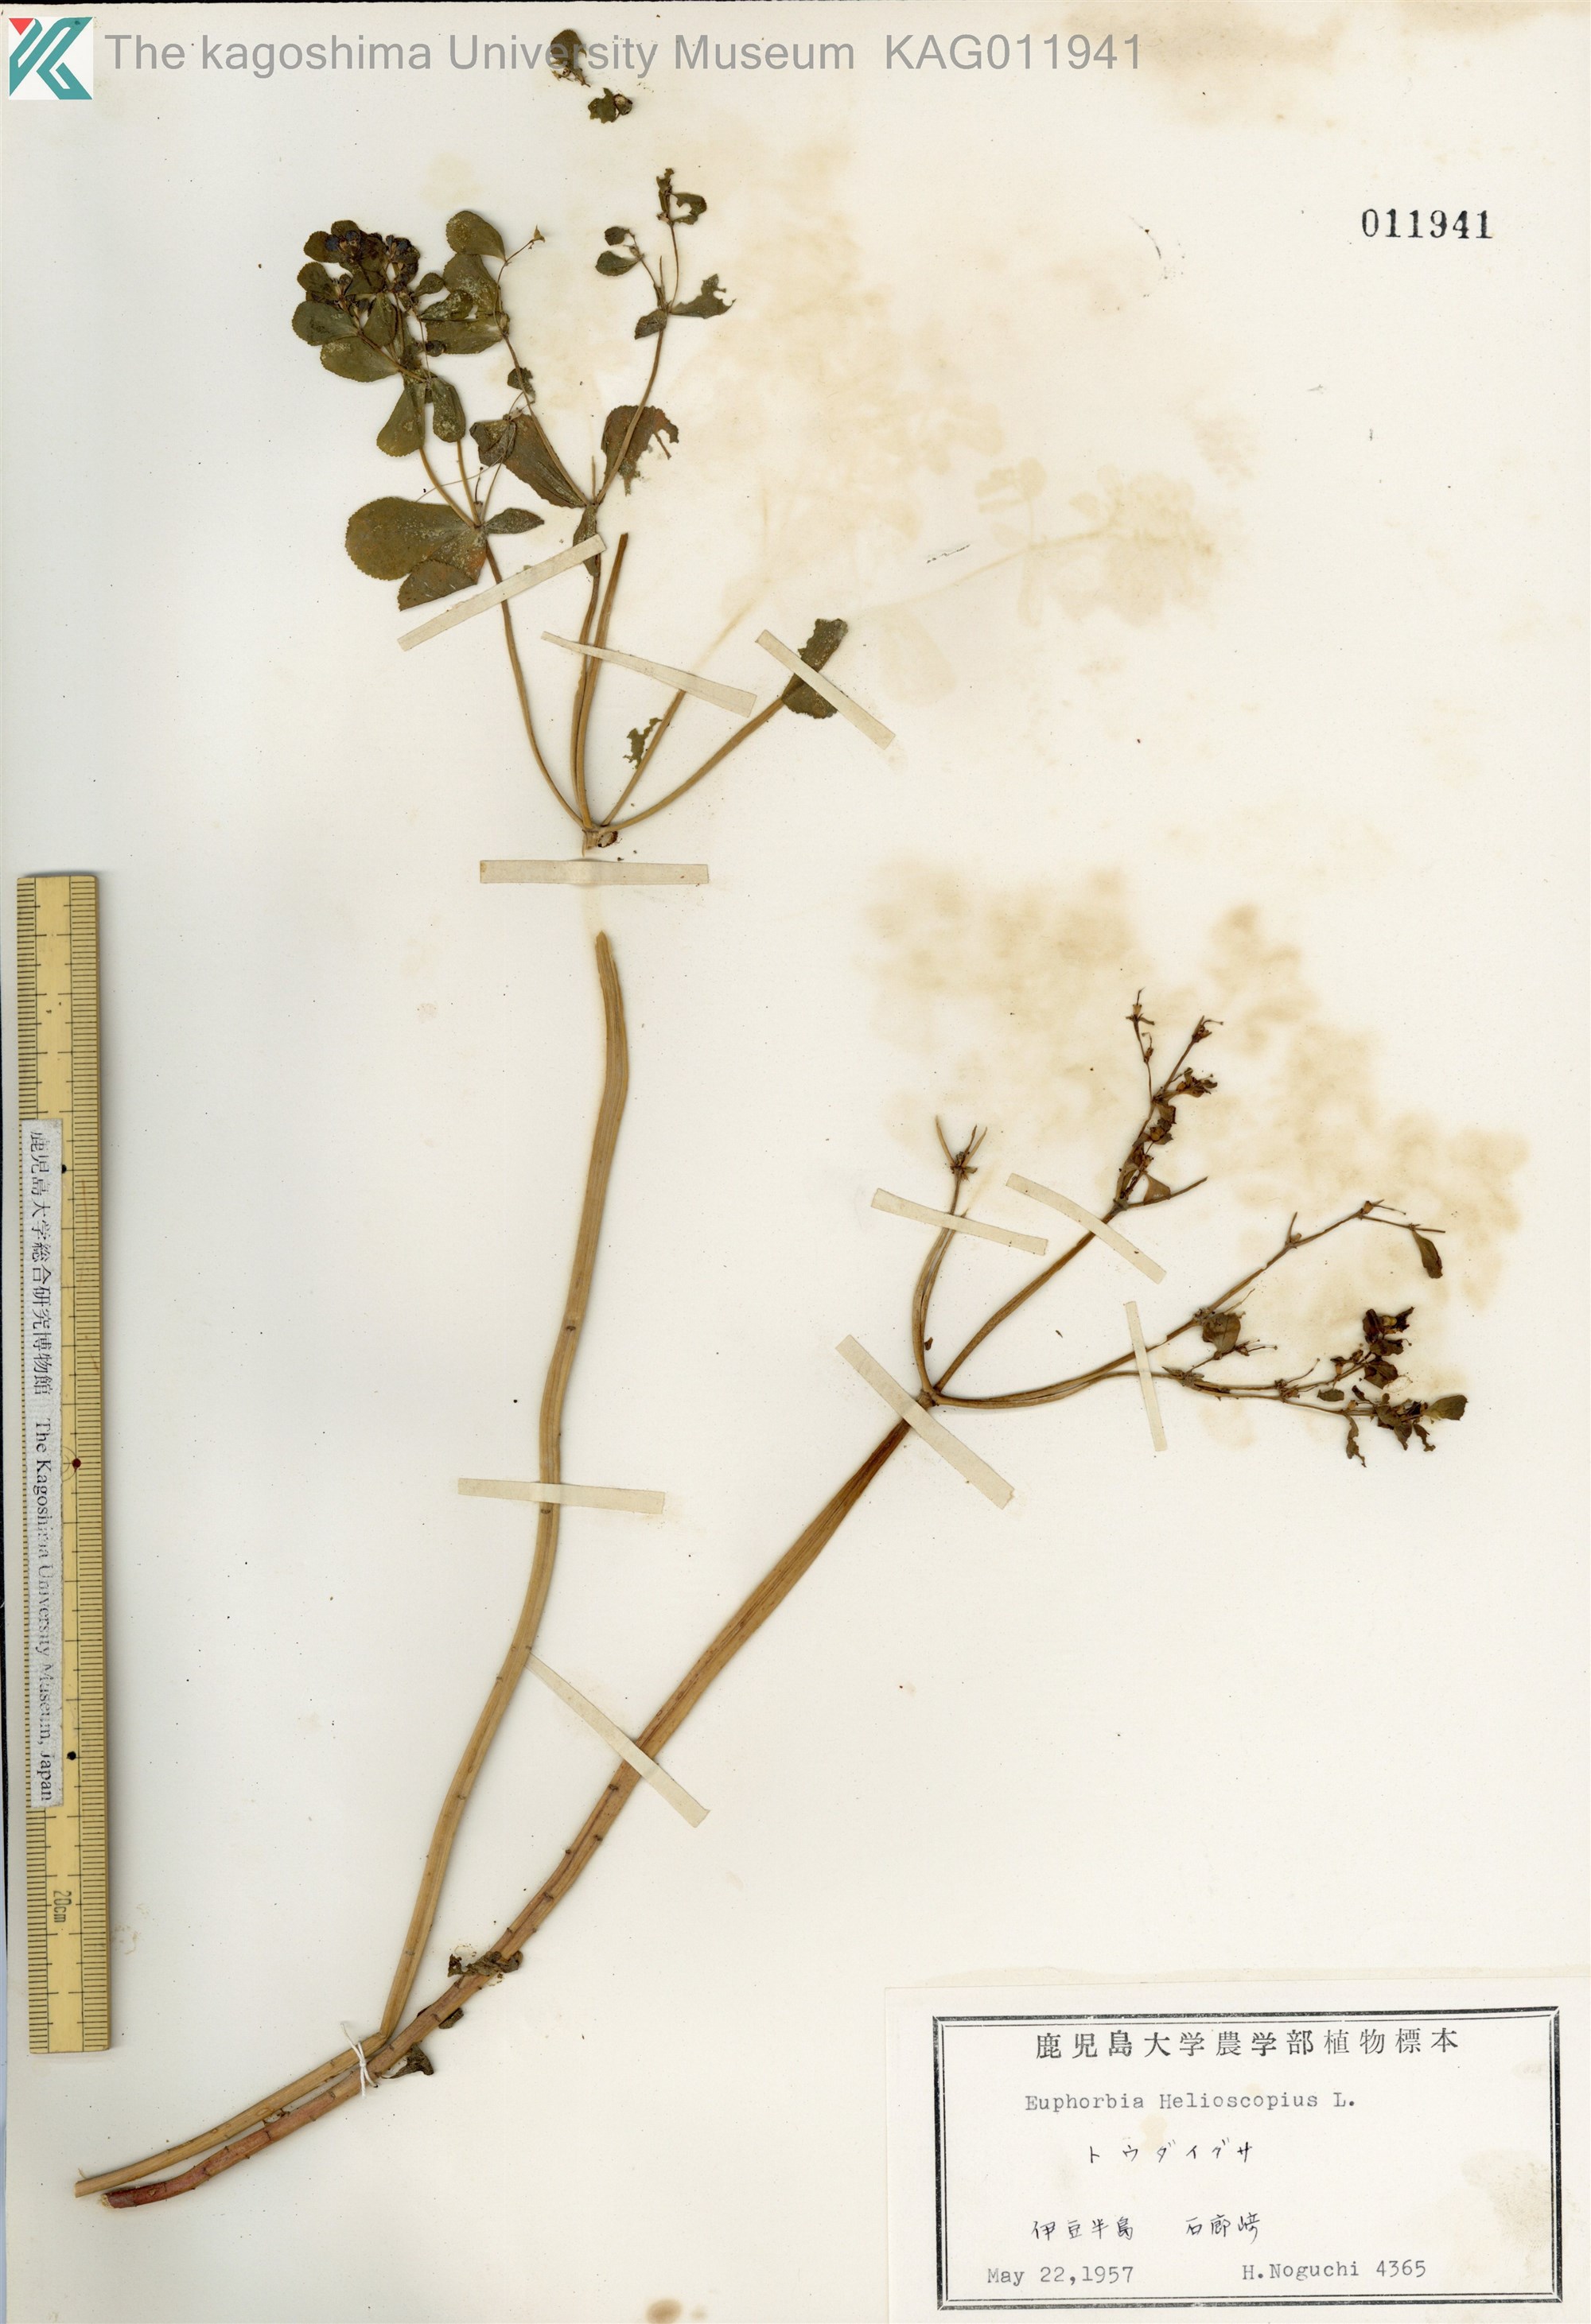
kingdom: Plantae
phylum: Tracheophyta
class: Magnoliopsida
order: Malpighiales
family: Euphorbiaceae
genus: Euphorbia
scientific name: Euphorbia helioscopia
